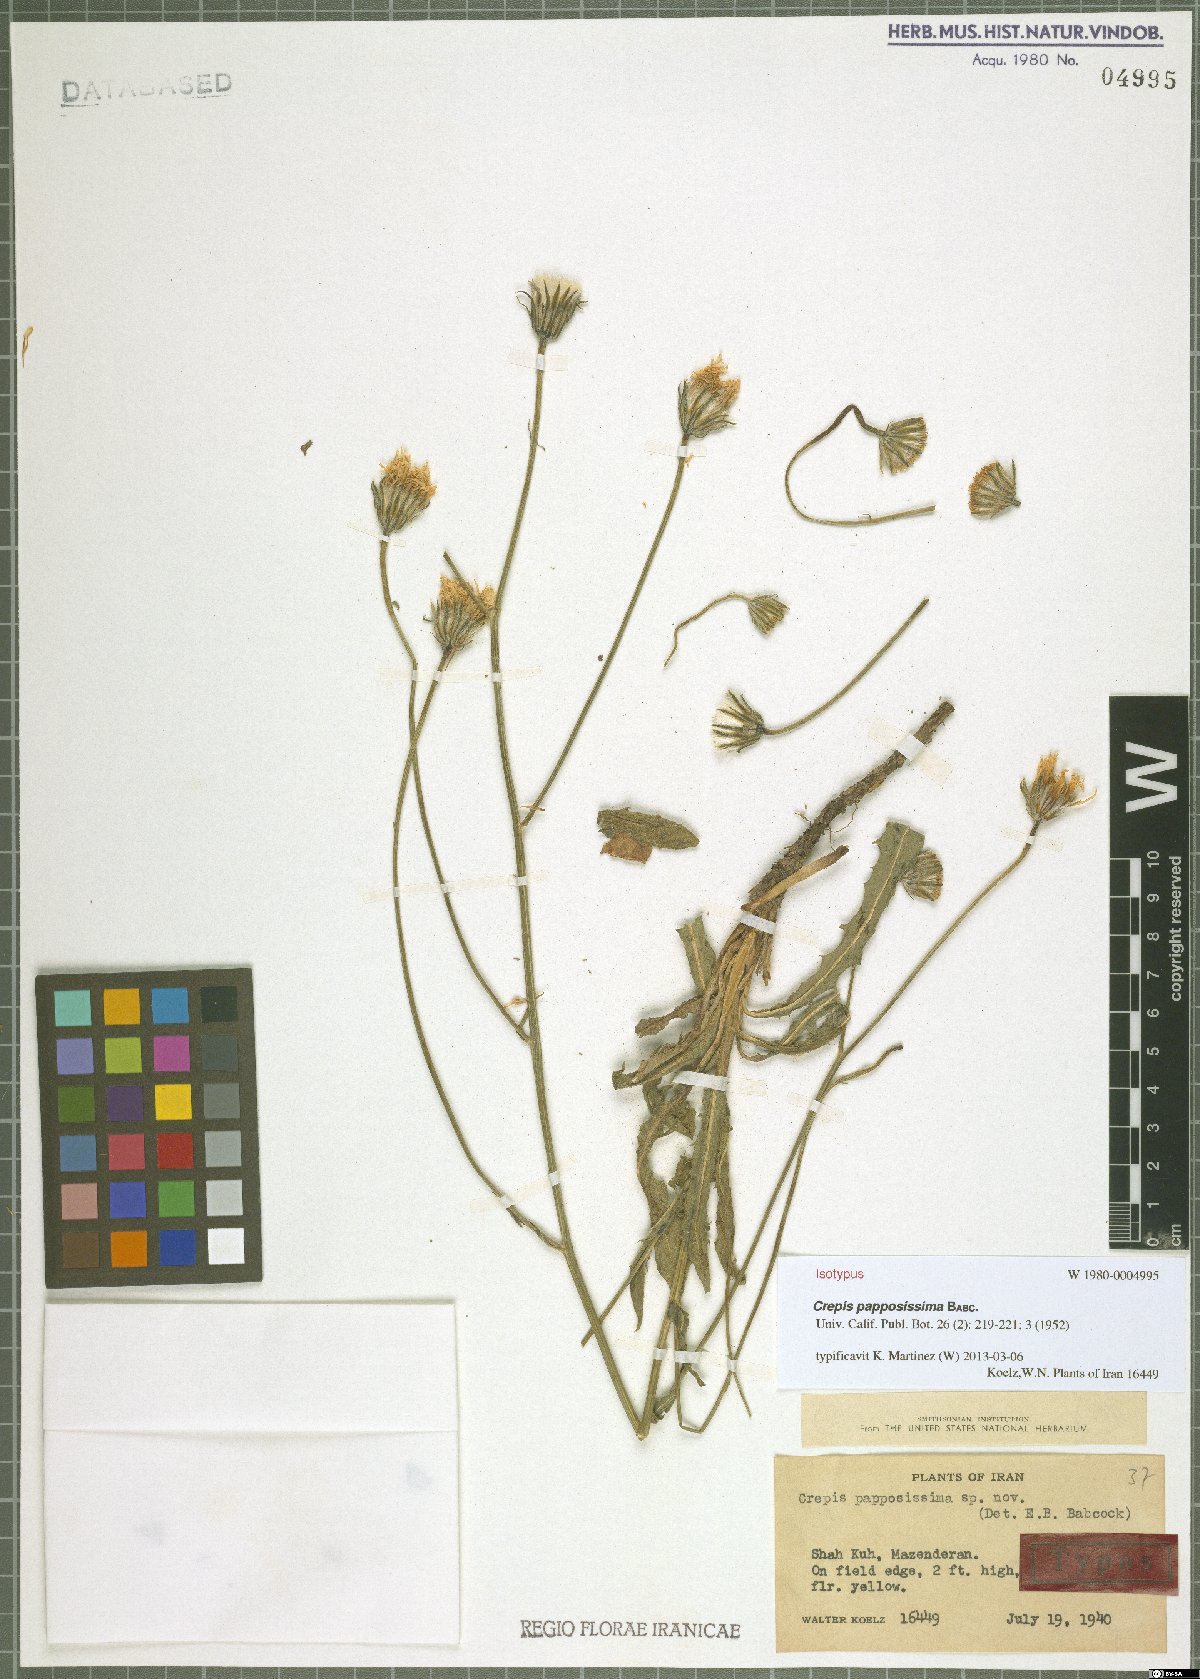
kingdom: Plantae
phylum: Tracheophyta
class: Magnoliopsida
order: Asterales
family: Asteraceae
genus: Crepis
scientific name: Crepis papposissima
